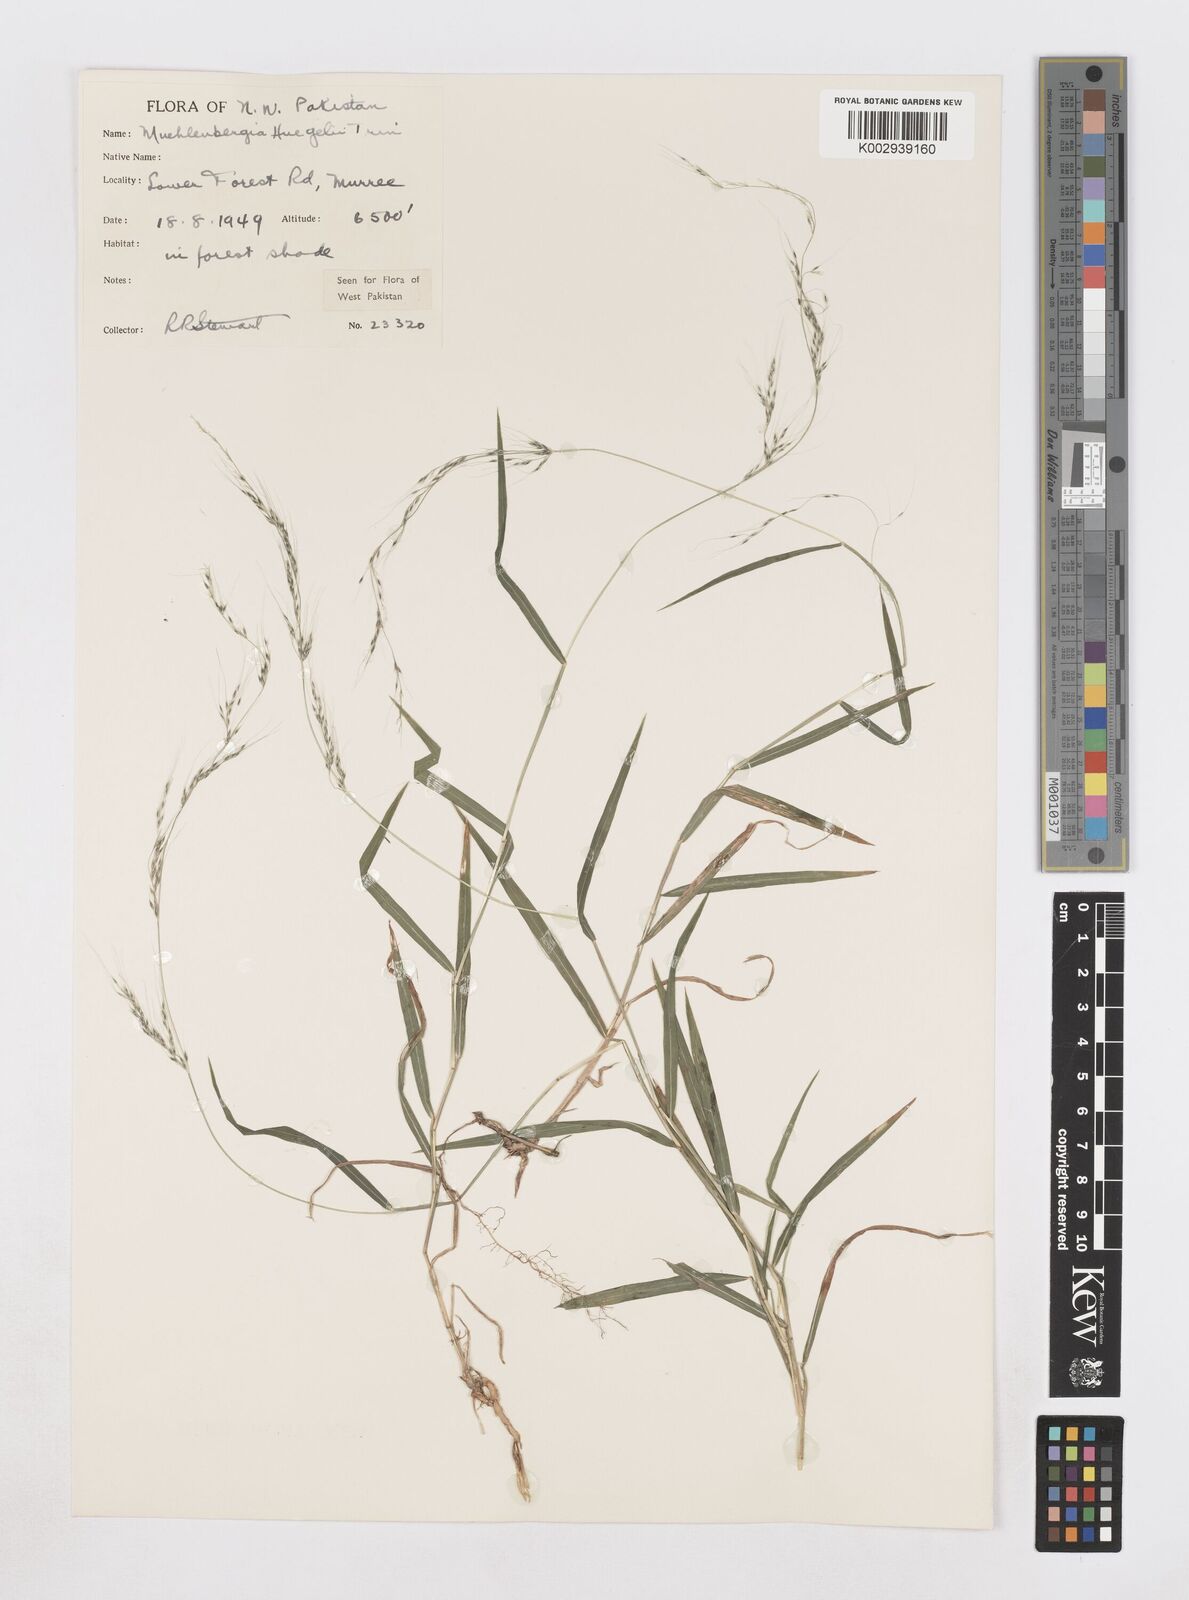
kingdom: Plantae
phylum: Tracheophyta
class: Liliopsida
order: Poales
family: Poaceae
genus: Muhlenbergia
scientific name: Muhlenbergia huegelii
